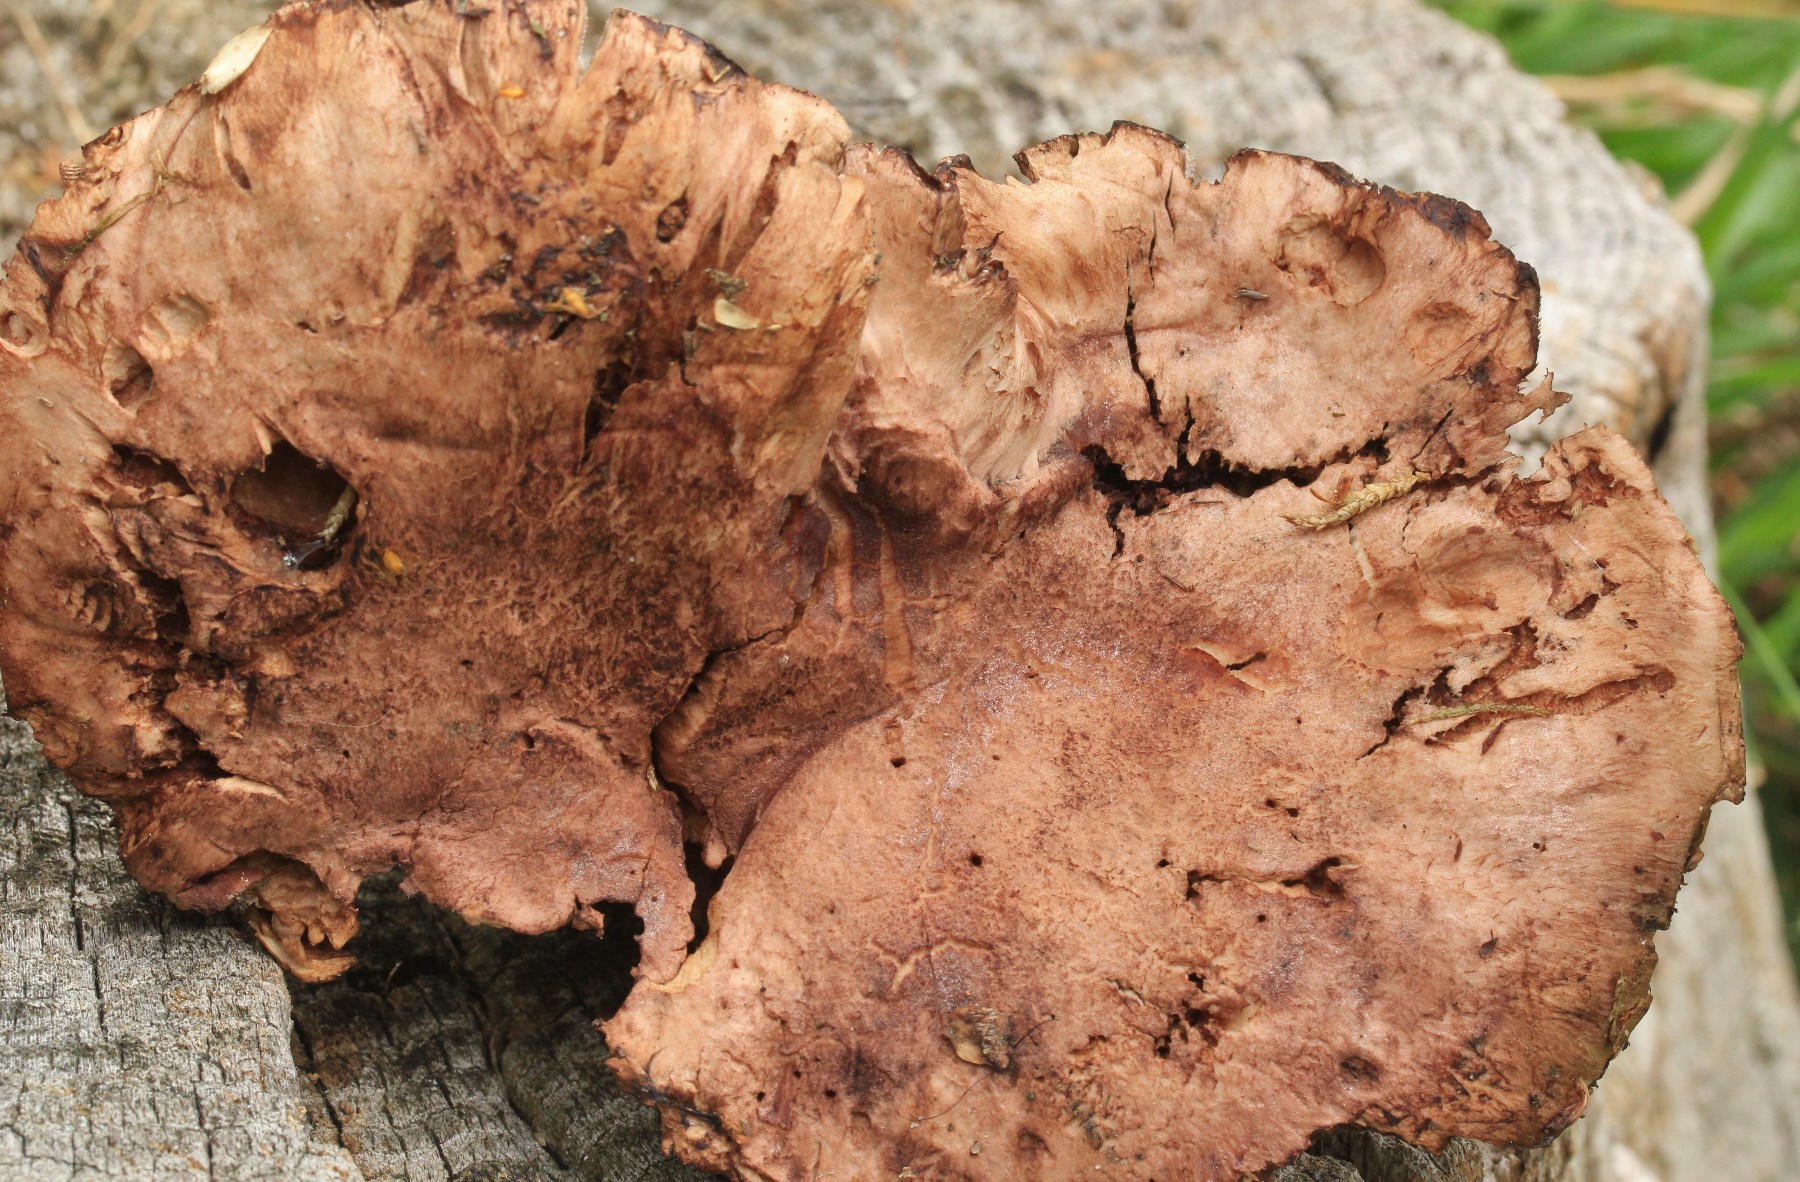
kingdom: Fungi
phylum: Basidiomycota
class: Agaricomycetes
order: Thelephorales
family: Bankeraceae
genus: Hydnellum
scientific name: Hydnellum scabrosum
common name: blåfodet korkpigsvamp
